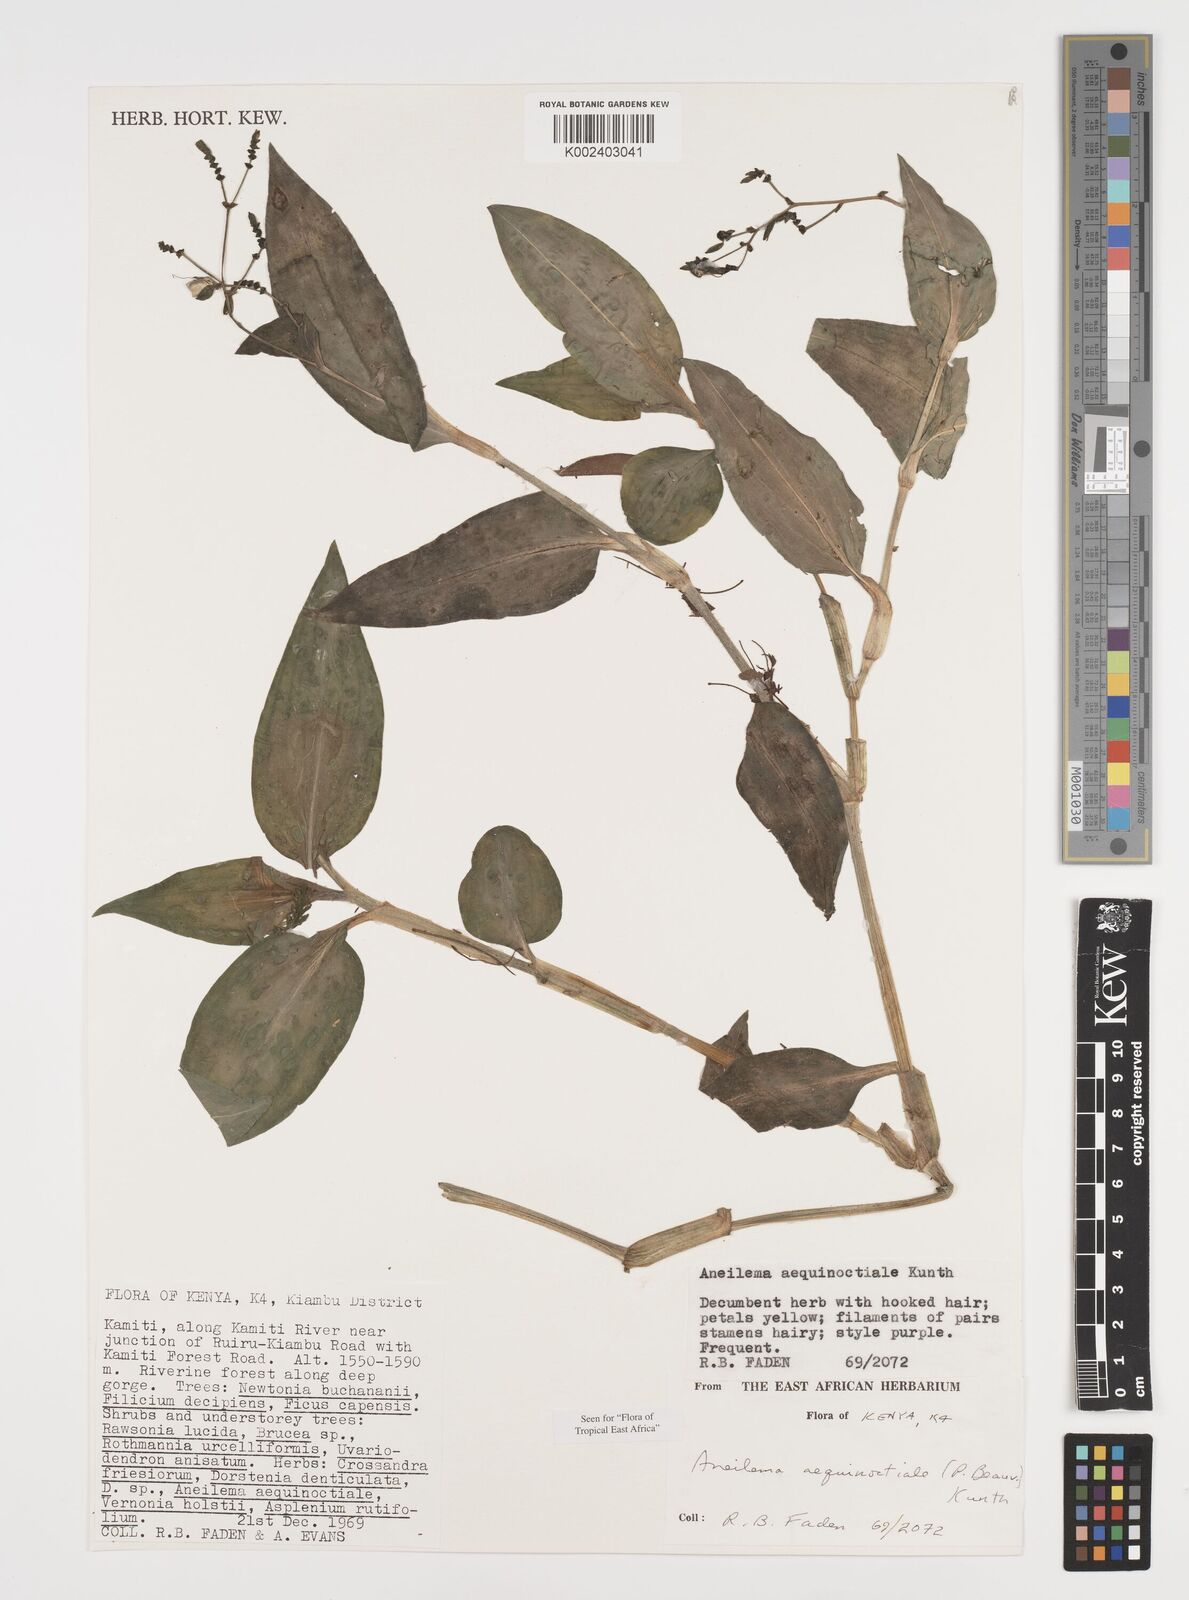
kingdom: Plantae
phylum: Tracheophyta
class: Liliopsida
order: Commelinales
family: Commelinaceae
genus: Aneilema
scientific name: Aneilema aequinoctiale
